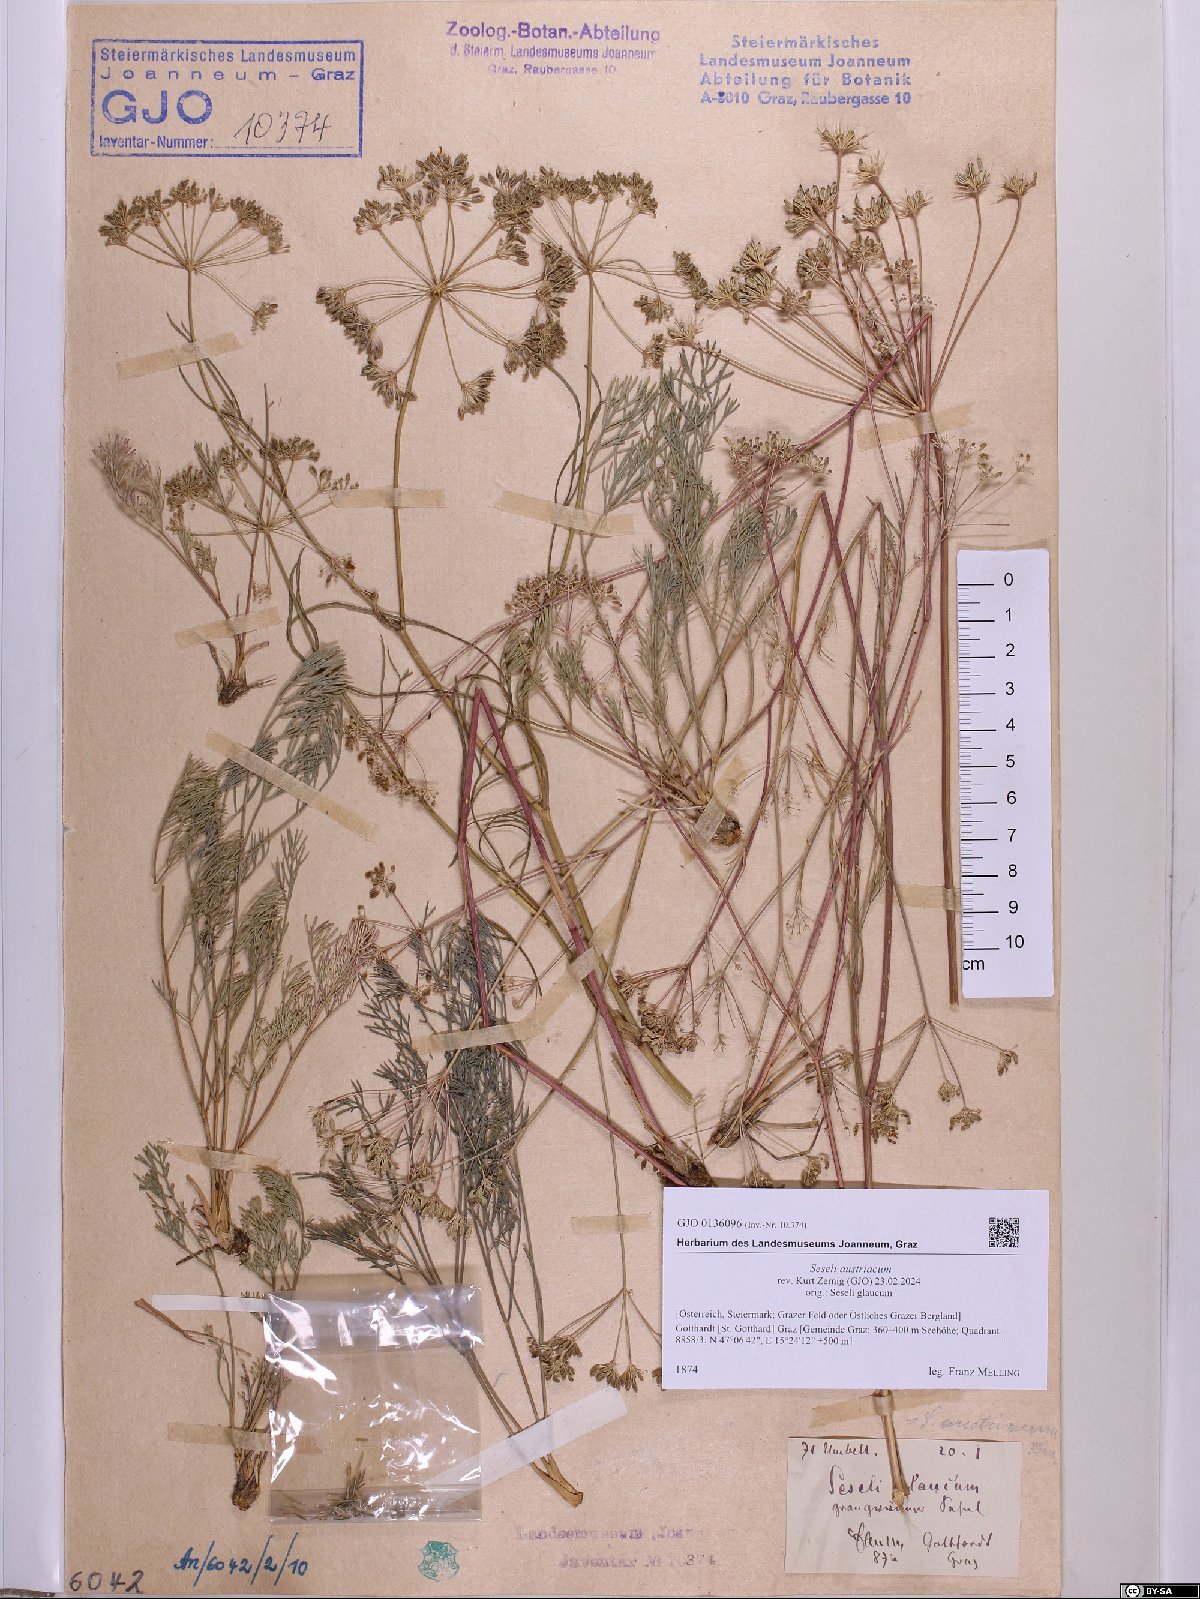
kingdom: Plantae
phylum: Tracheophyta
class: Magnoliopsida
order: Apiales
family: Apiaceae
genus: Seseli
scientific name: Seseli austriacum
